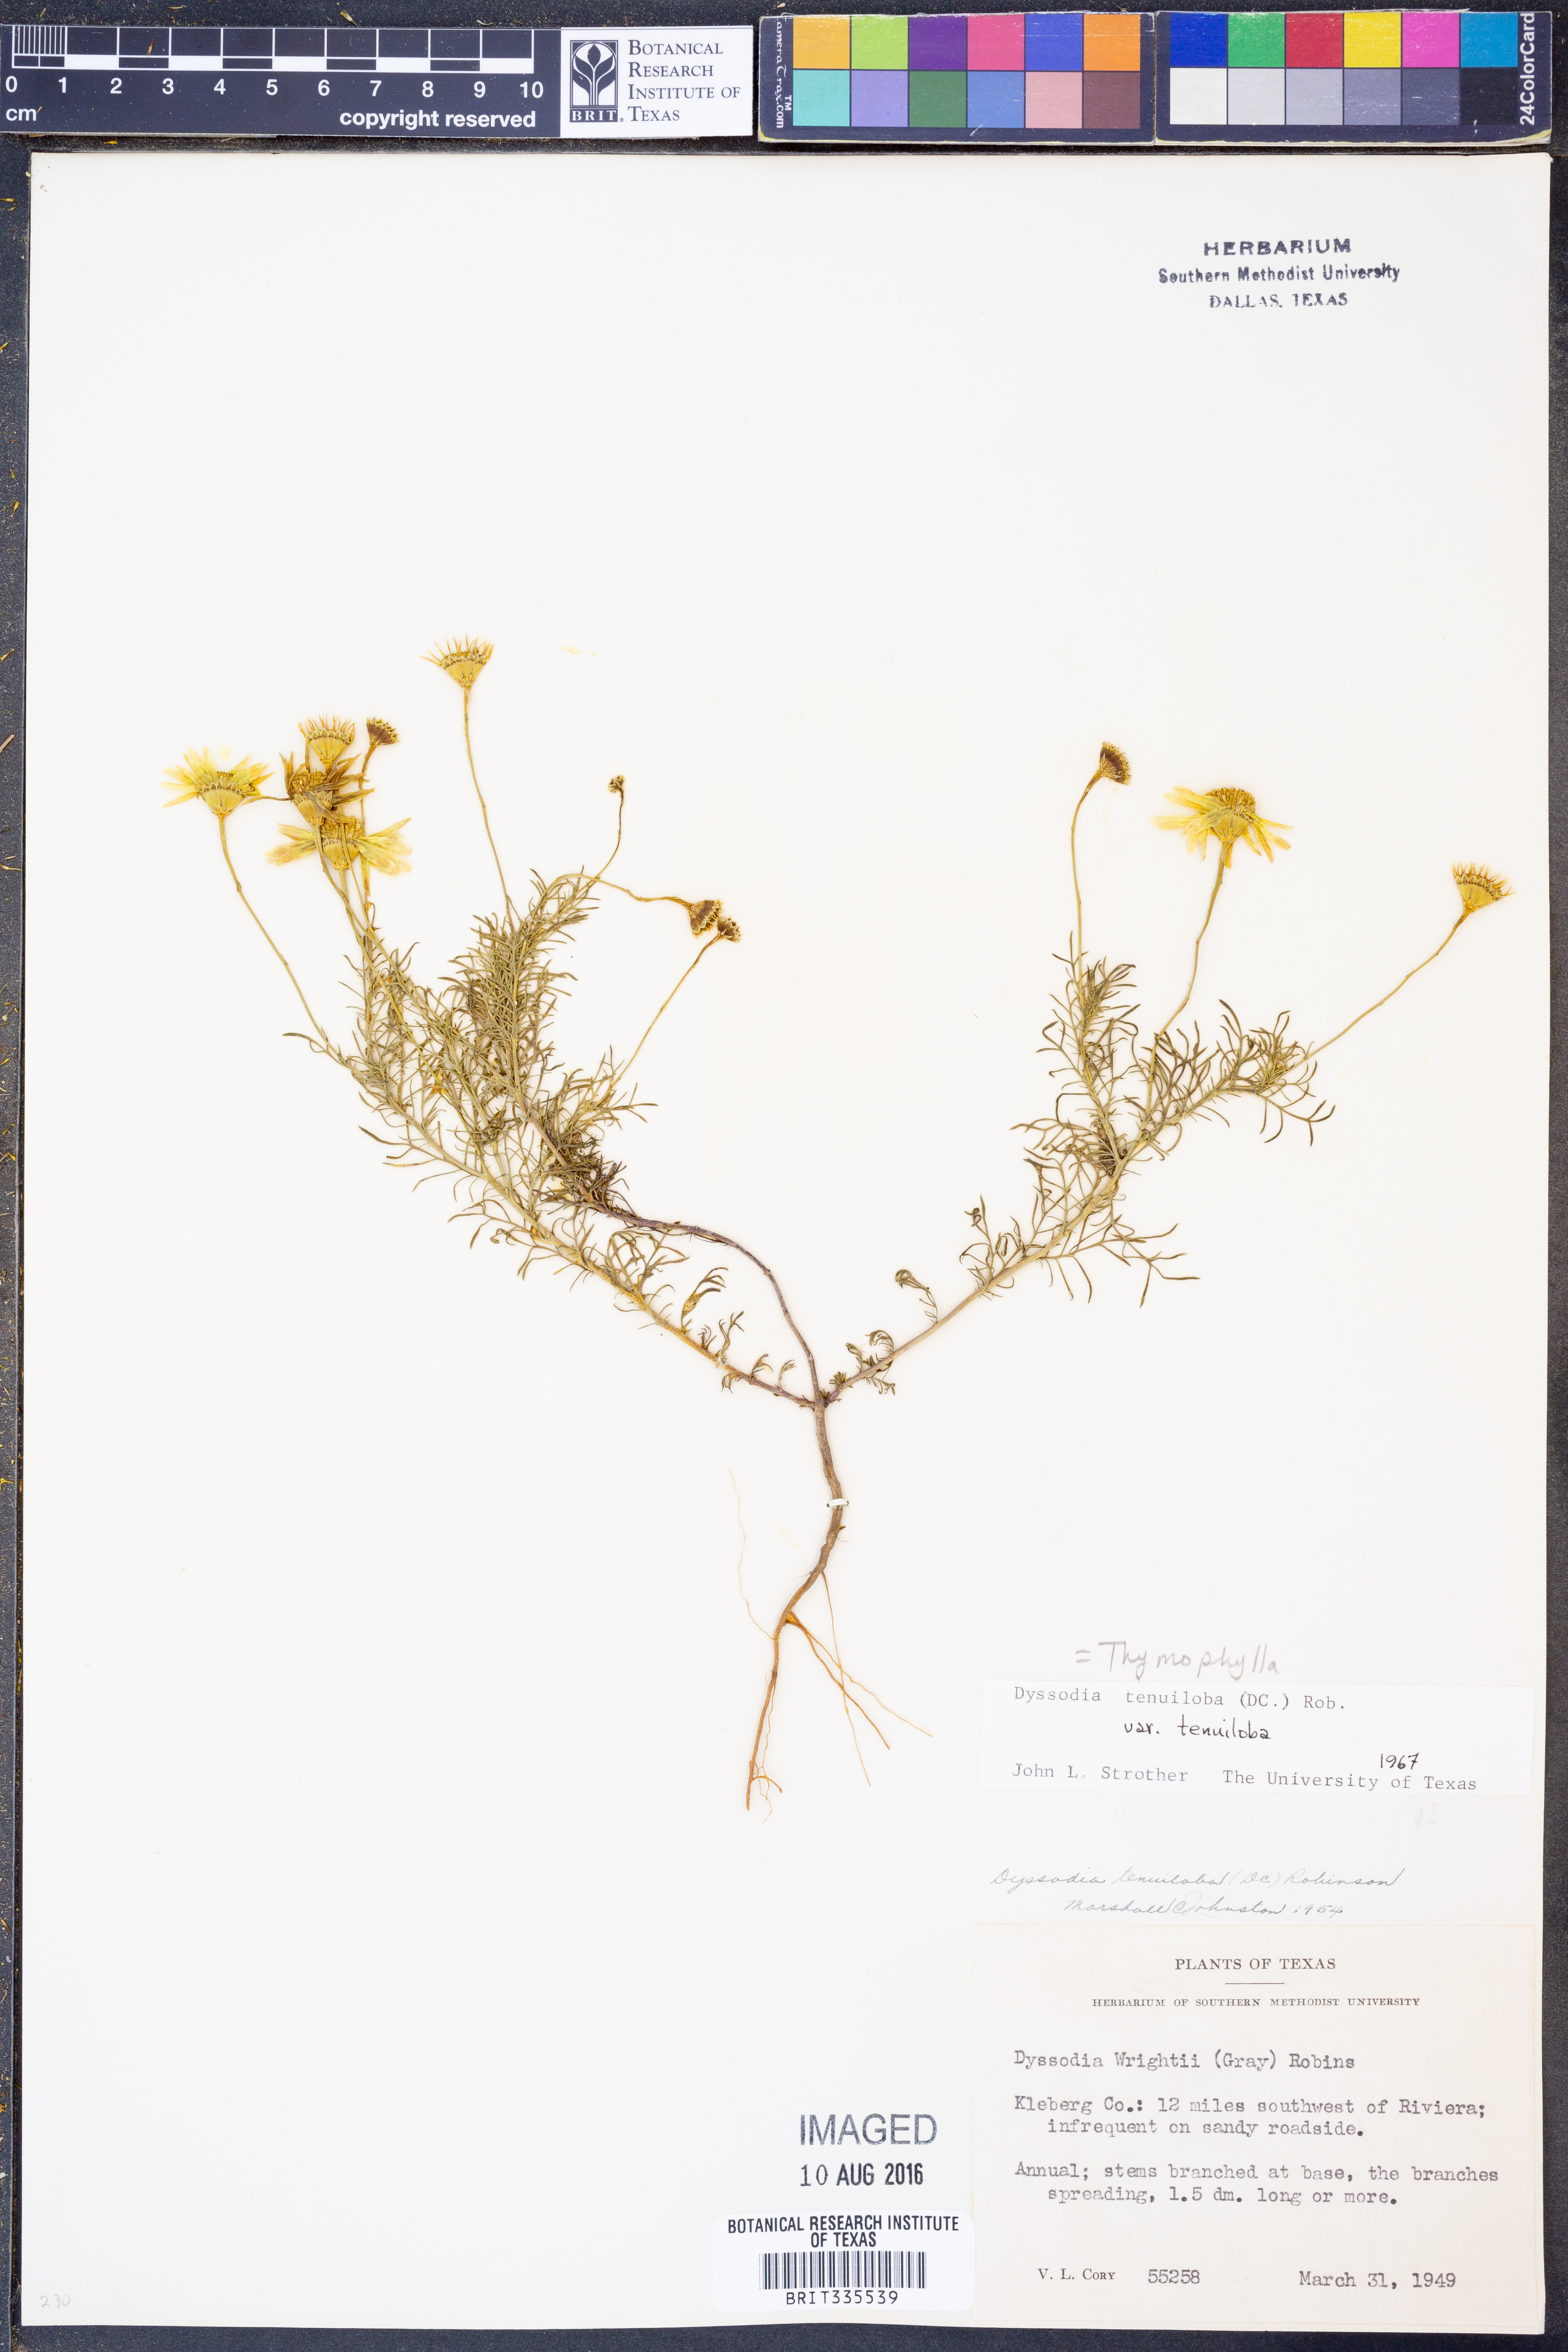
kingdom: Plantae
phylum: Tracheophyta
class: Magnoliopsida
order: Asterales
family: Asteraceae
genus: Thymophylla
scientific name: Thymophylla tenuiloba
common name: Dahlberg's daisy
